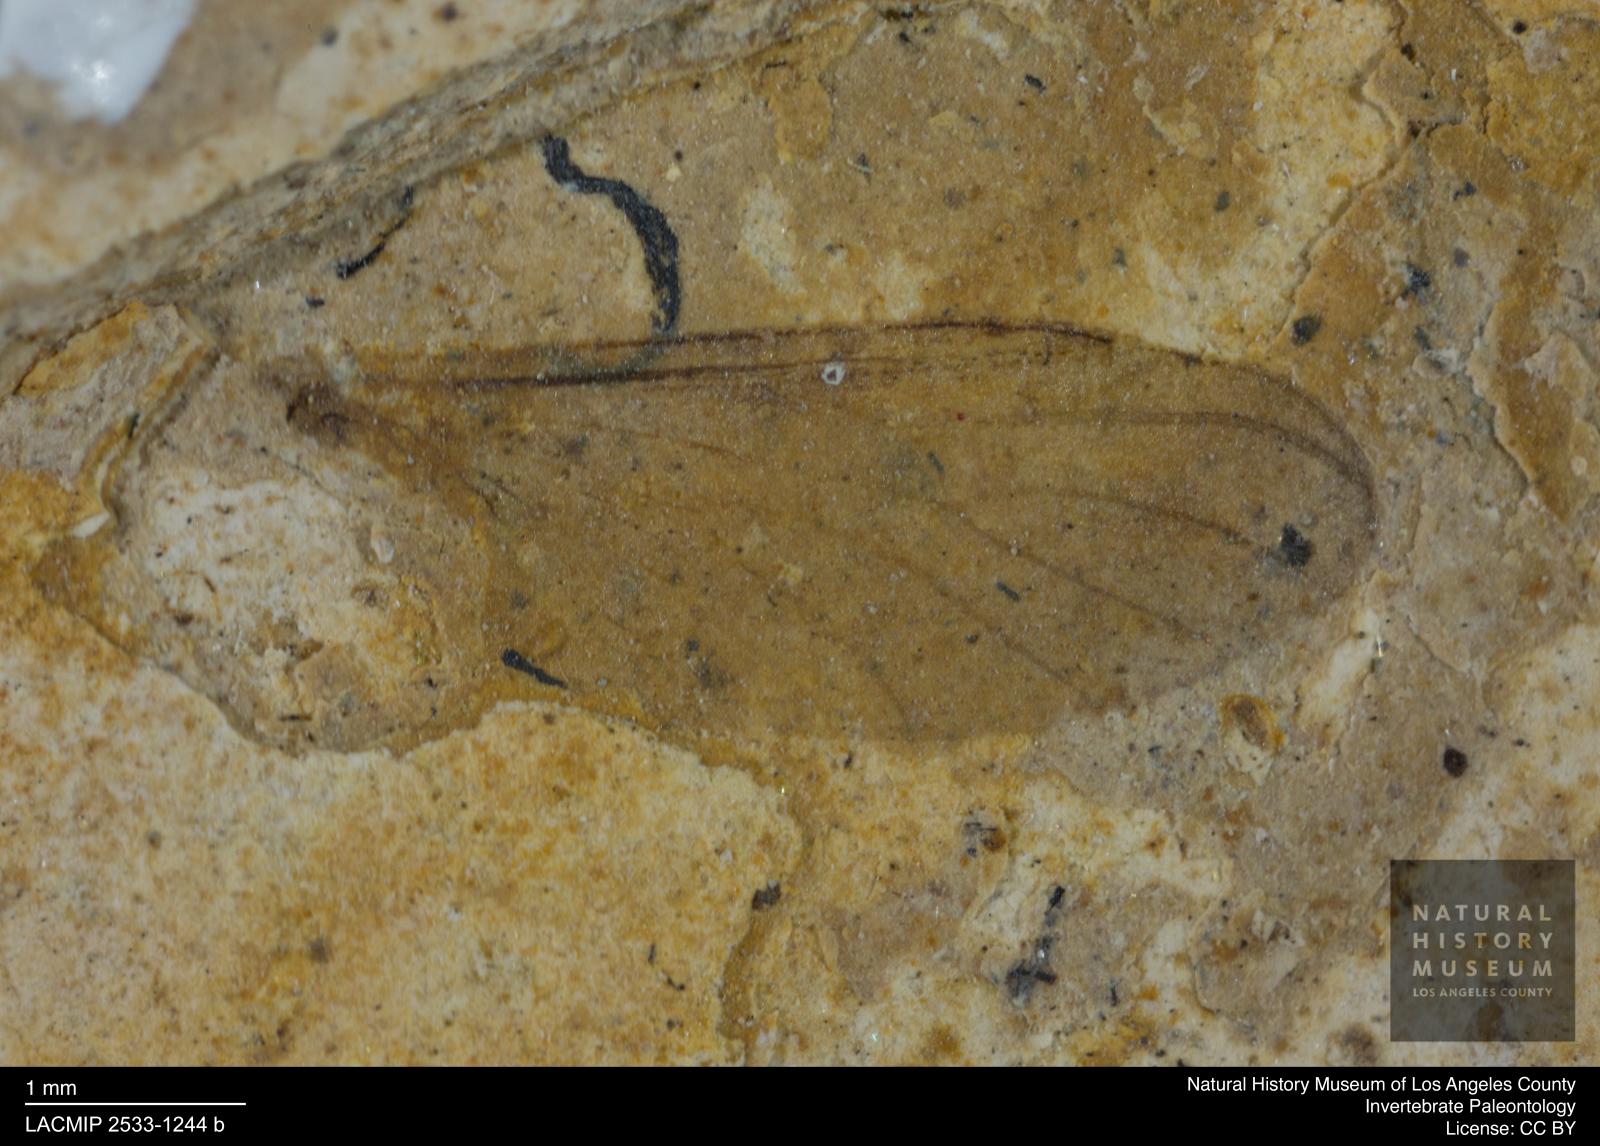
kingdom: Animalia
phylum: Arthropoda
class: Insecta
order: Diptera
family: Bibionidae
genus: Plecia
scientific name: Plecia
